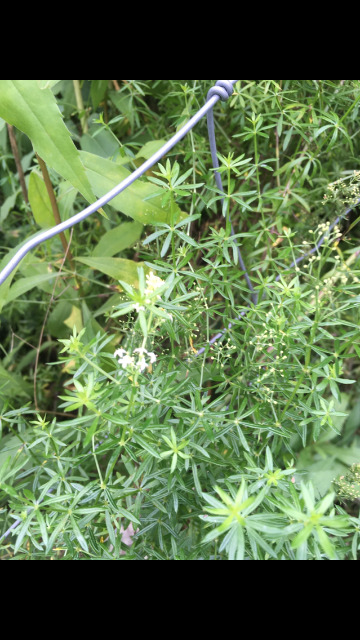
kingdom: Plantae
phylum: Tracheophyta
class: Magnoliopsida
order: Gentianales
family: Rubiaceae
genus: Galium
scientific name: Galium mollugo
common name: Hvid snerre
